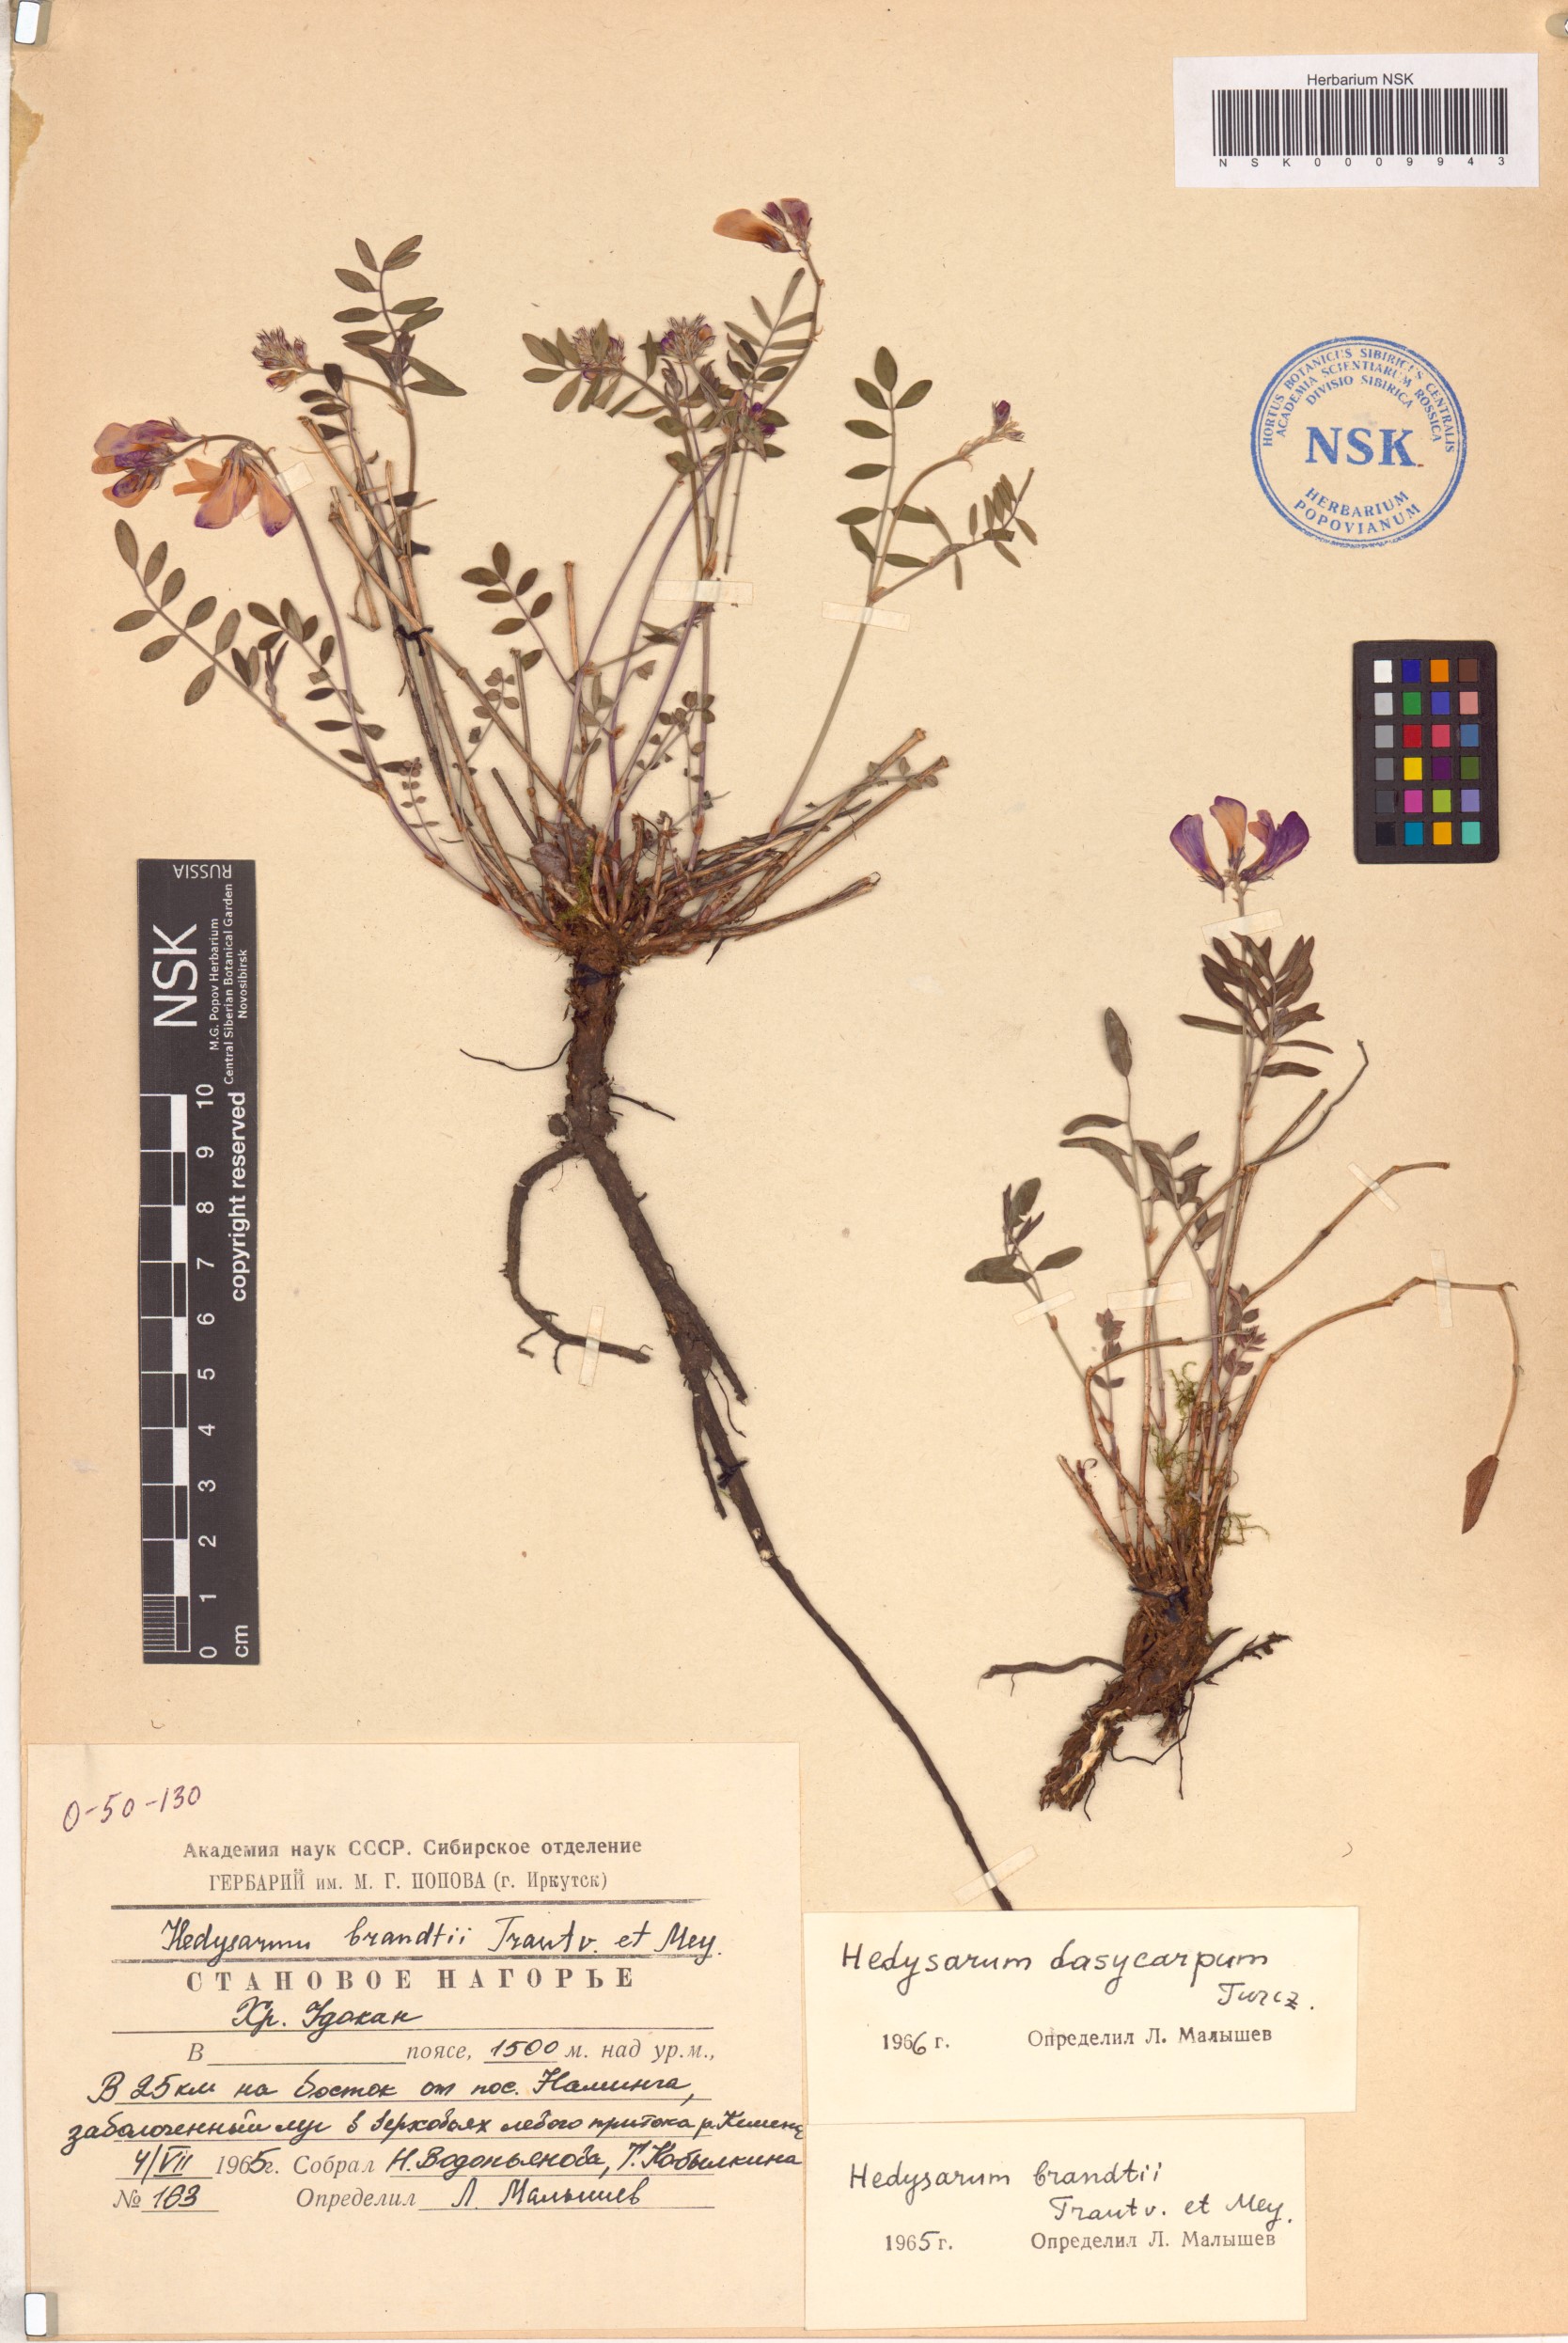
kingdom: Plantae
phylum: Tracheophyta
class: Magnoliopsida
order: Fabales
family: Fabaceae
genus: Hedysarum
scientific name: Hedysarum dasycarpum
